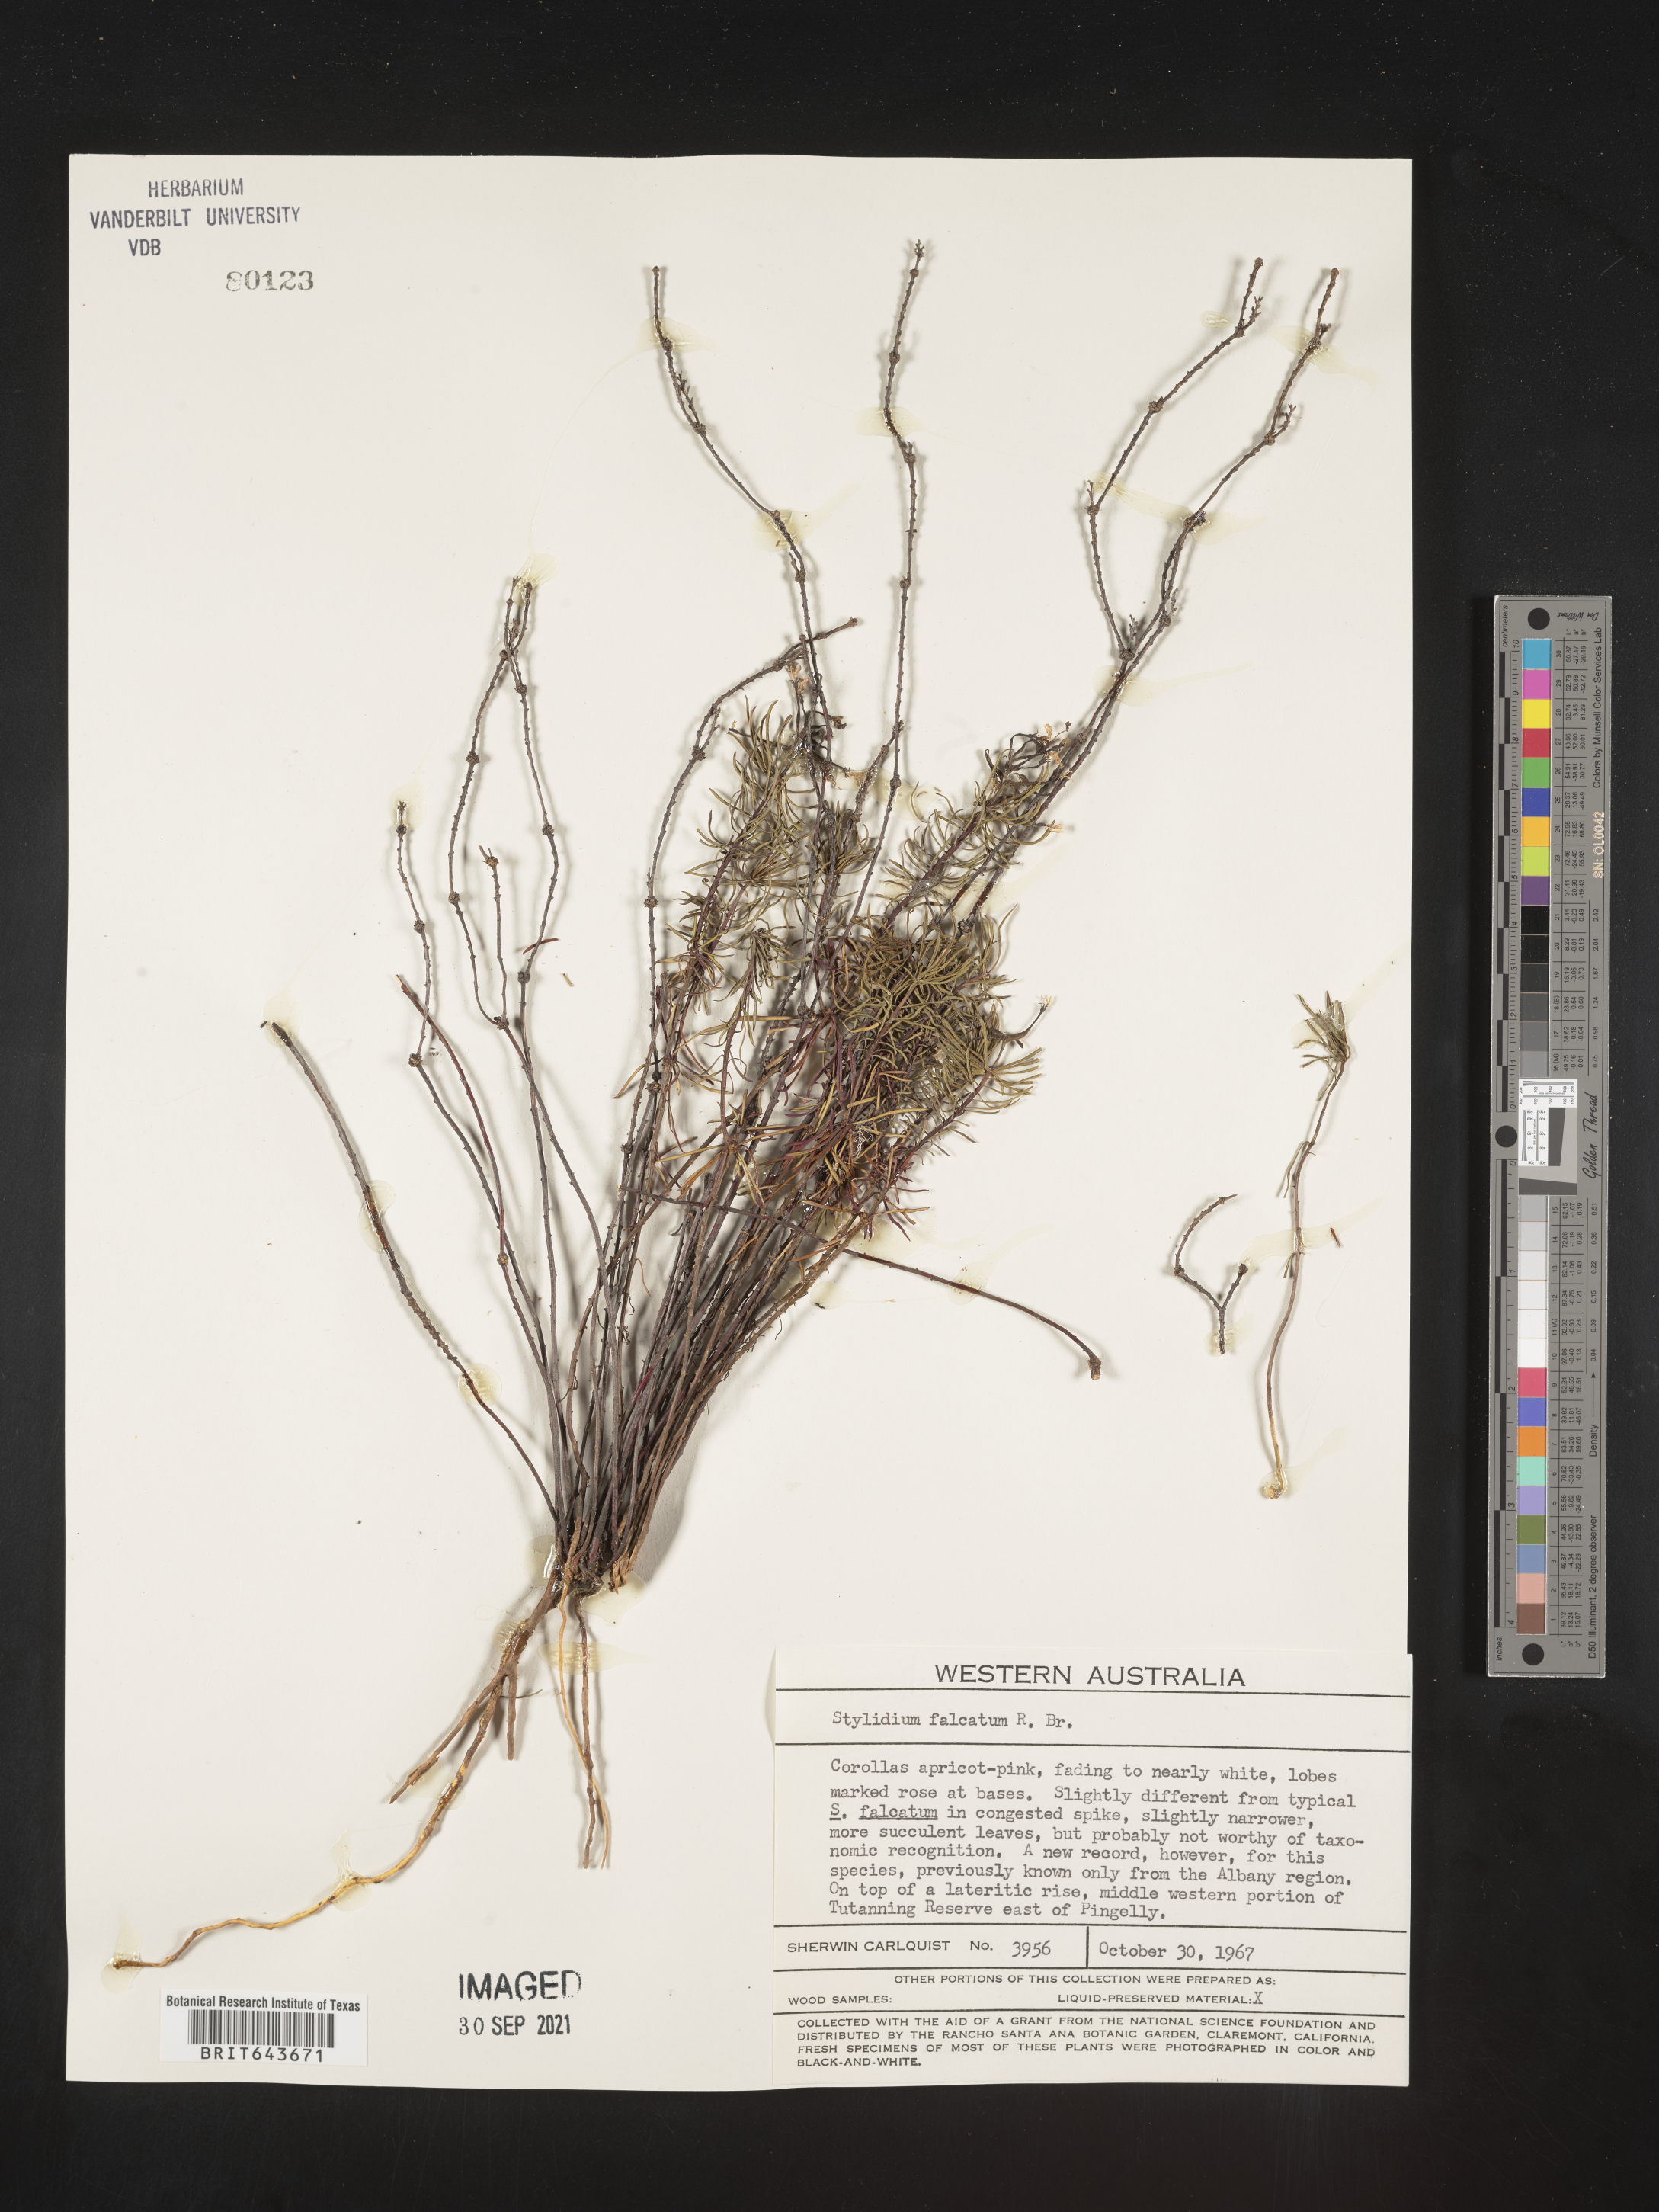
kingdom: Plantae
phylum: Tracheophyta
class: Magnoliopsida
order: Asterales
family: Stylidiaceae
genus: Stylidium
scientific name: Stylidium
